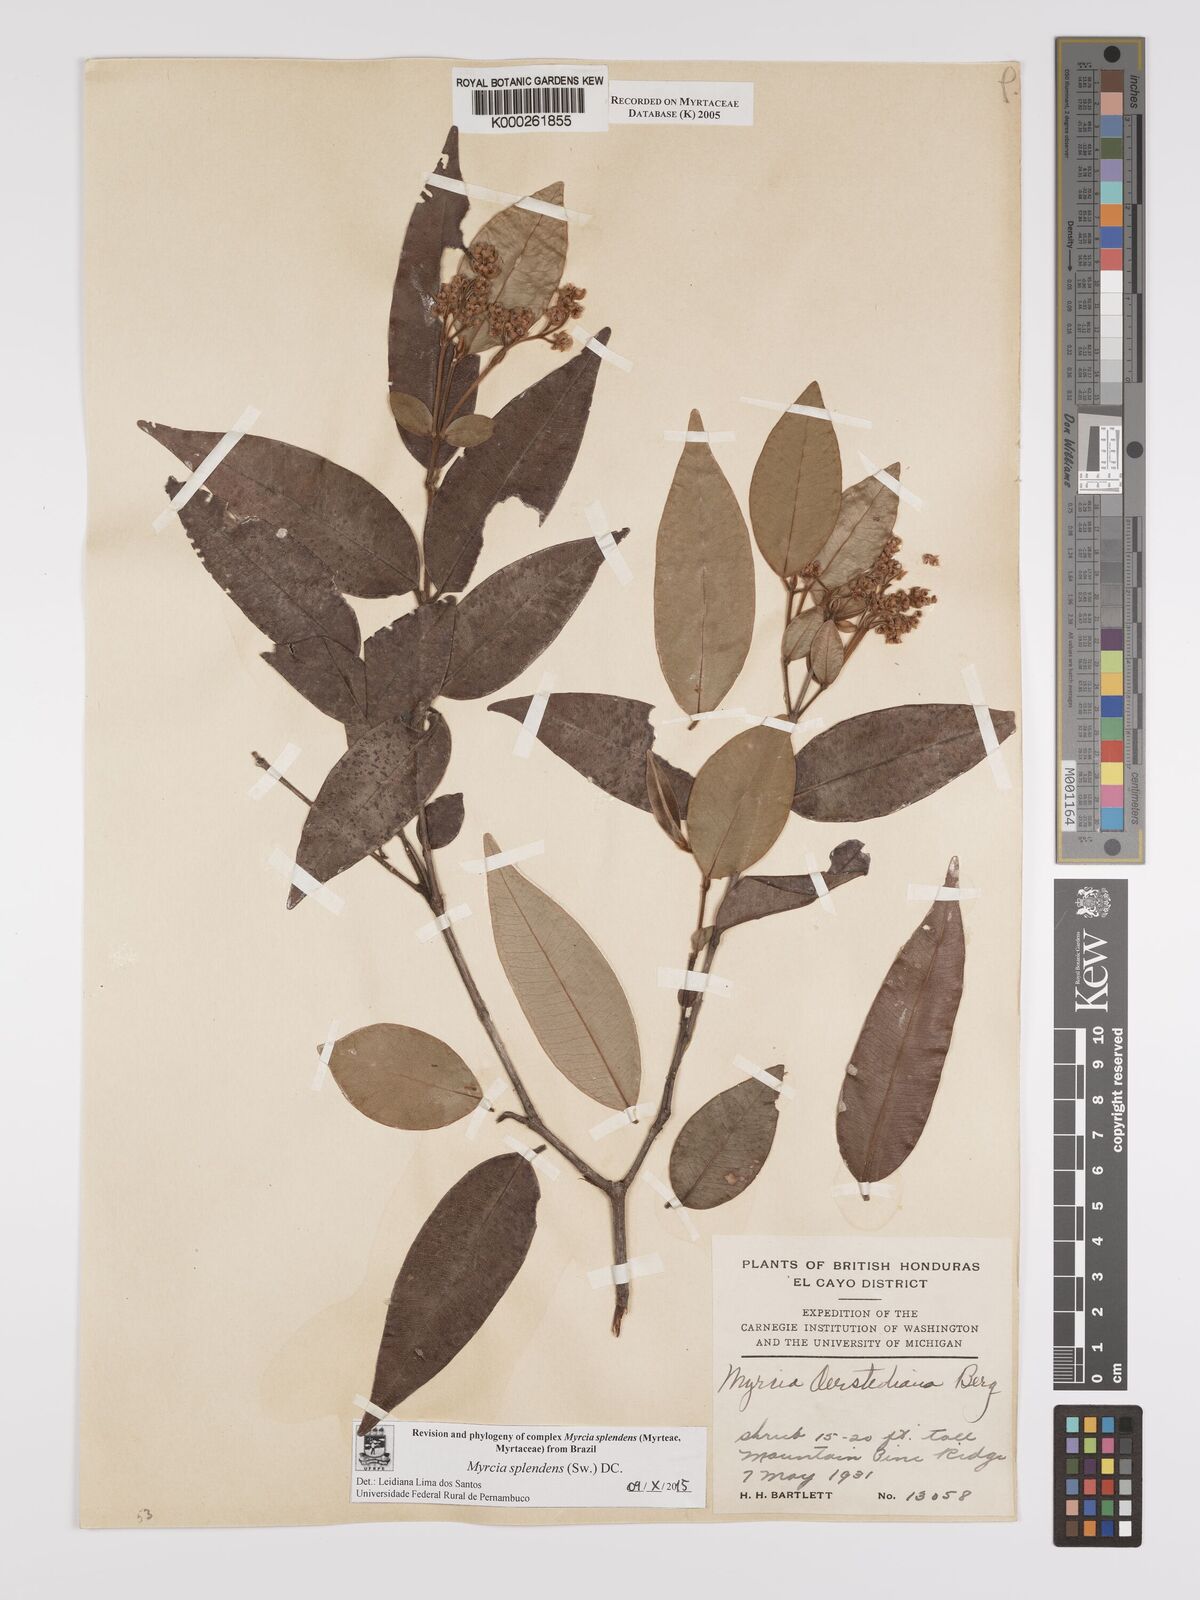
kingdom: Plantae
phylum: Tracheophyta
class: Magnoliopsida
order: Myrtales
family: Myrtaceae
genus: Myrcia
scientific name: Myrcia splendens
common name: Surinam cherry
